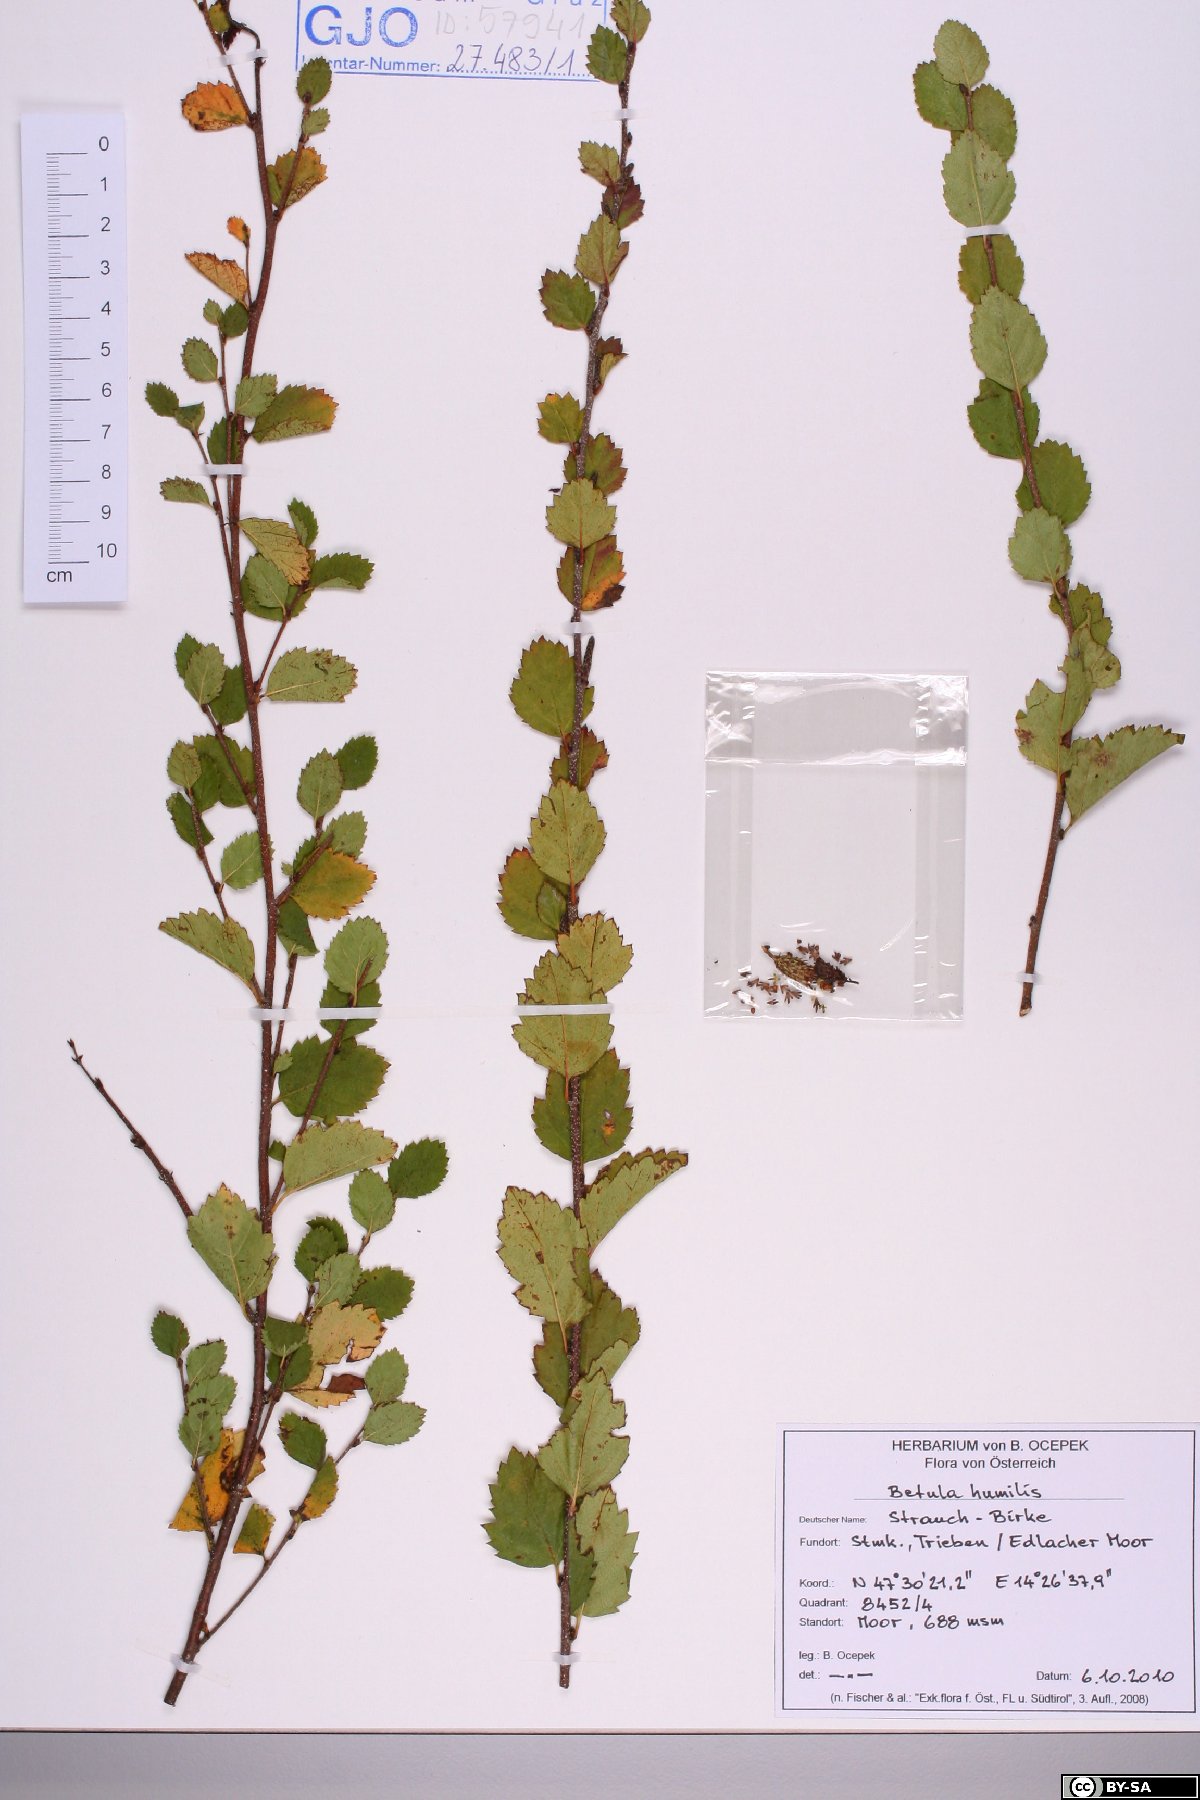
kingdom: Plantae
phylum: Tracheophyta
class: Magnoliopsida
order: Fagales
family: Betulaceae
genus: Betula
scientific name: Betula humilis
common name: Shrubby birch
